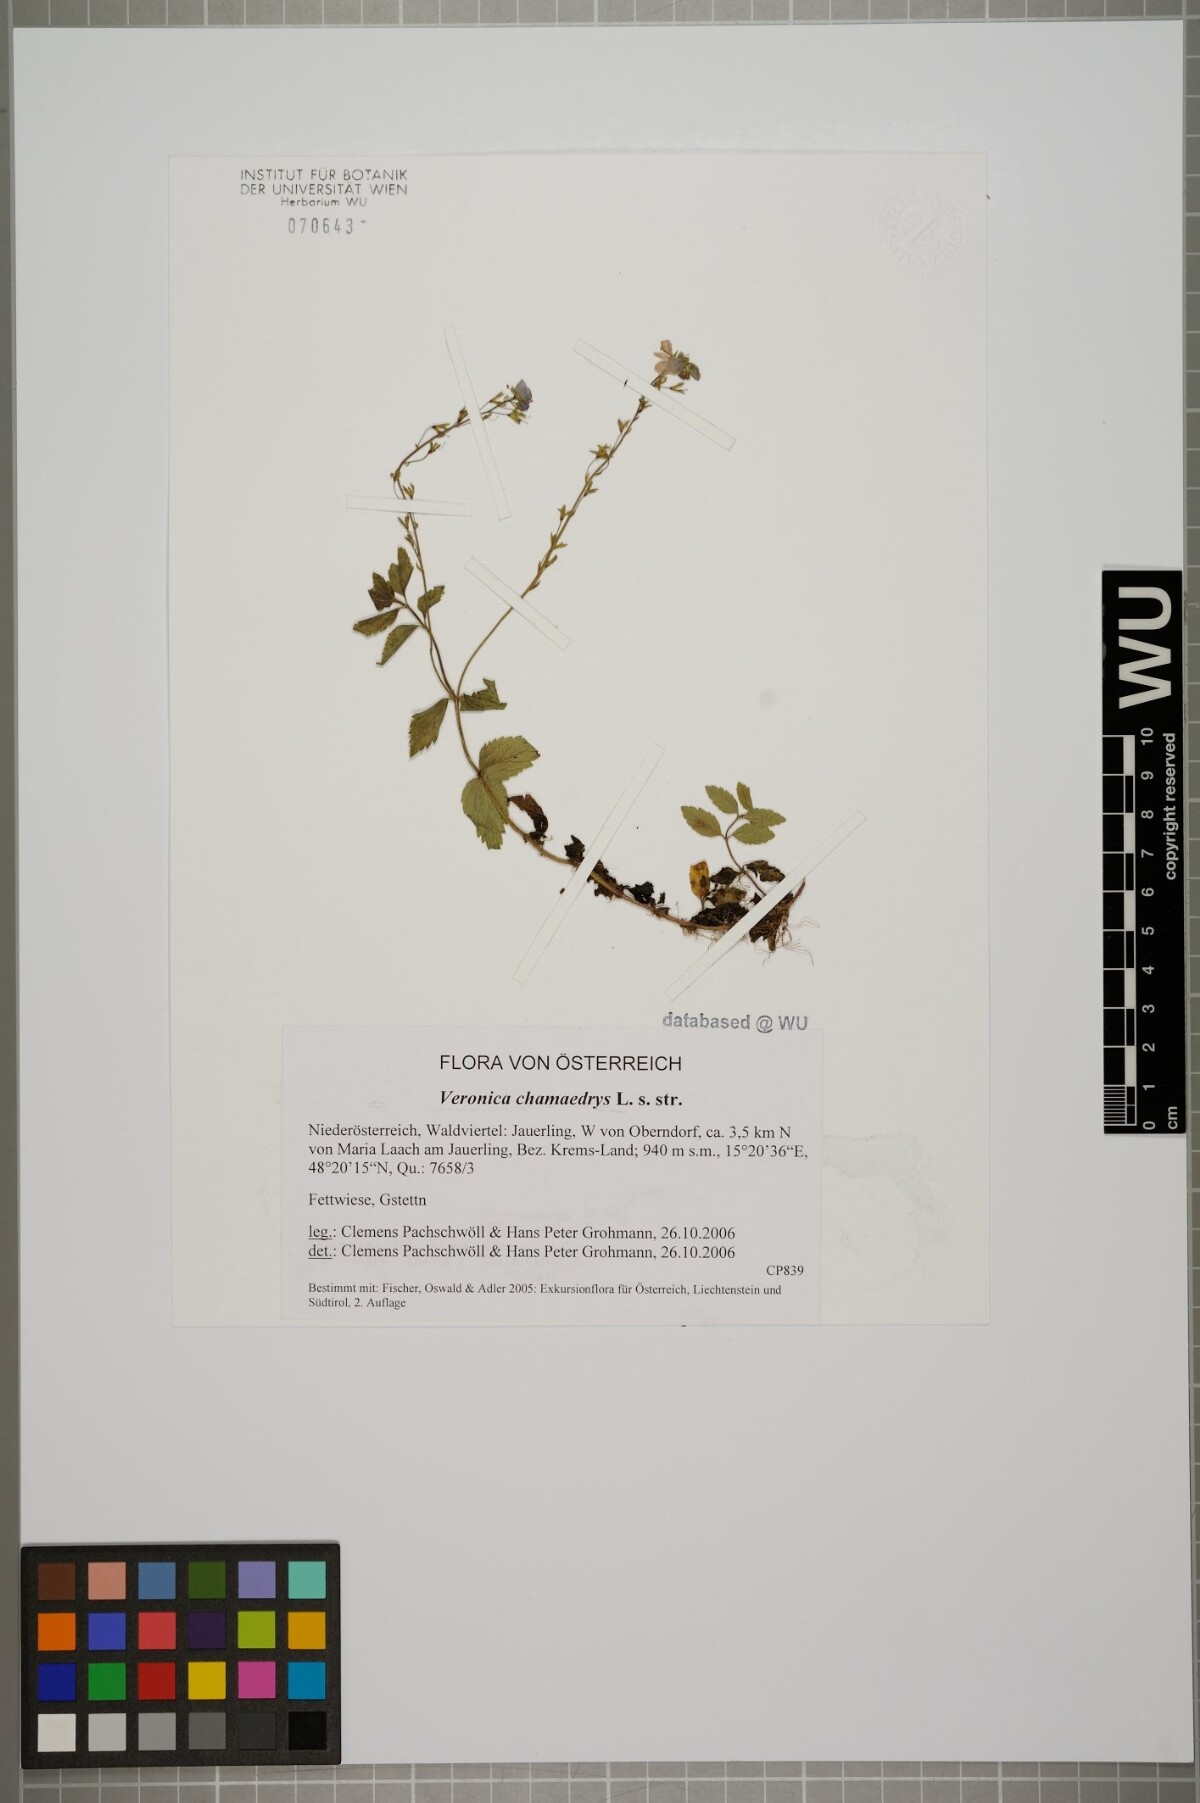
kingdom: Plantae
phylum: Tracheophyta
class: Magnoliopsida
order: Lamiales
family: Plantaginaceae
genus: Veronica
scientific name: Veronica chamaedrys
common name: Germander speedwell
